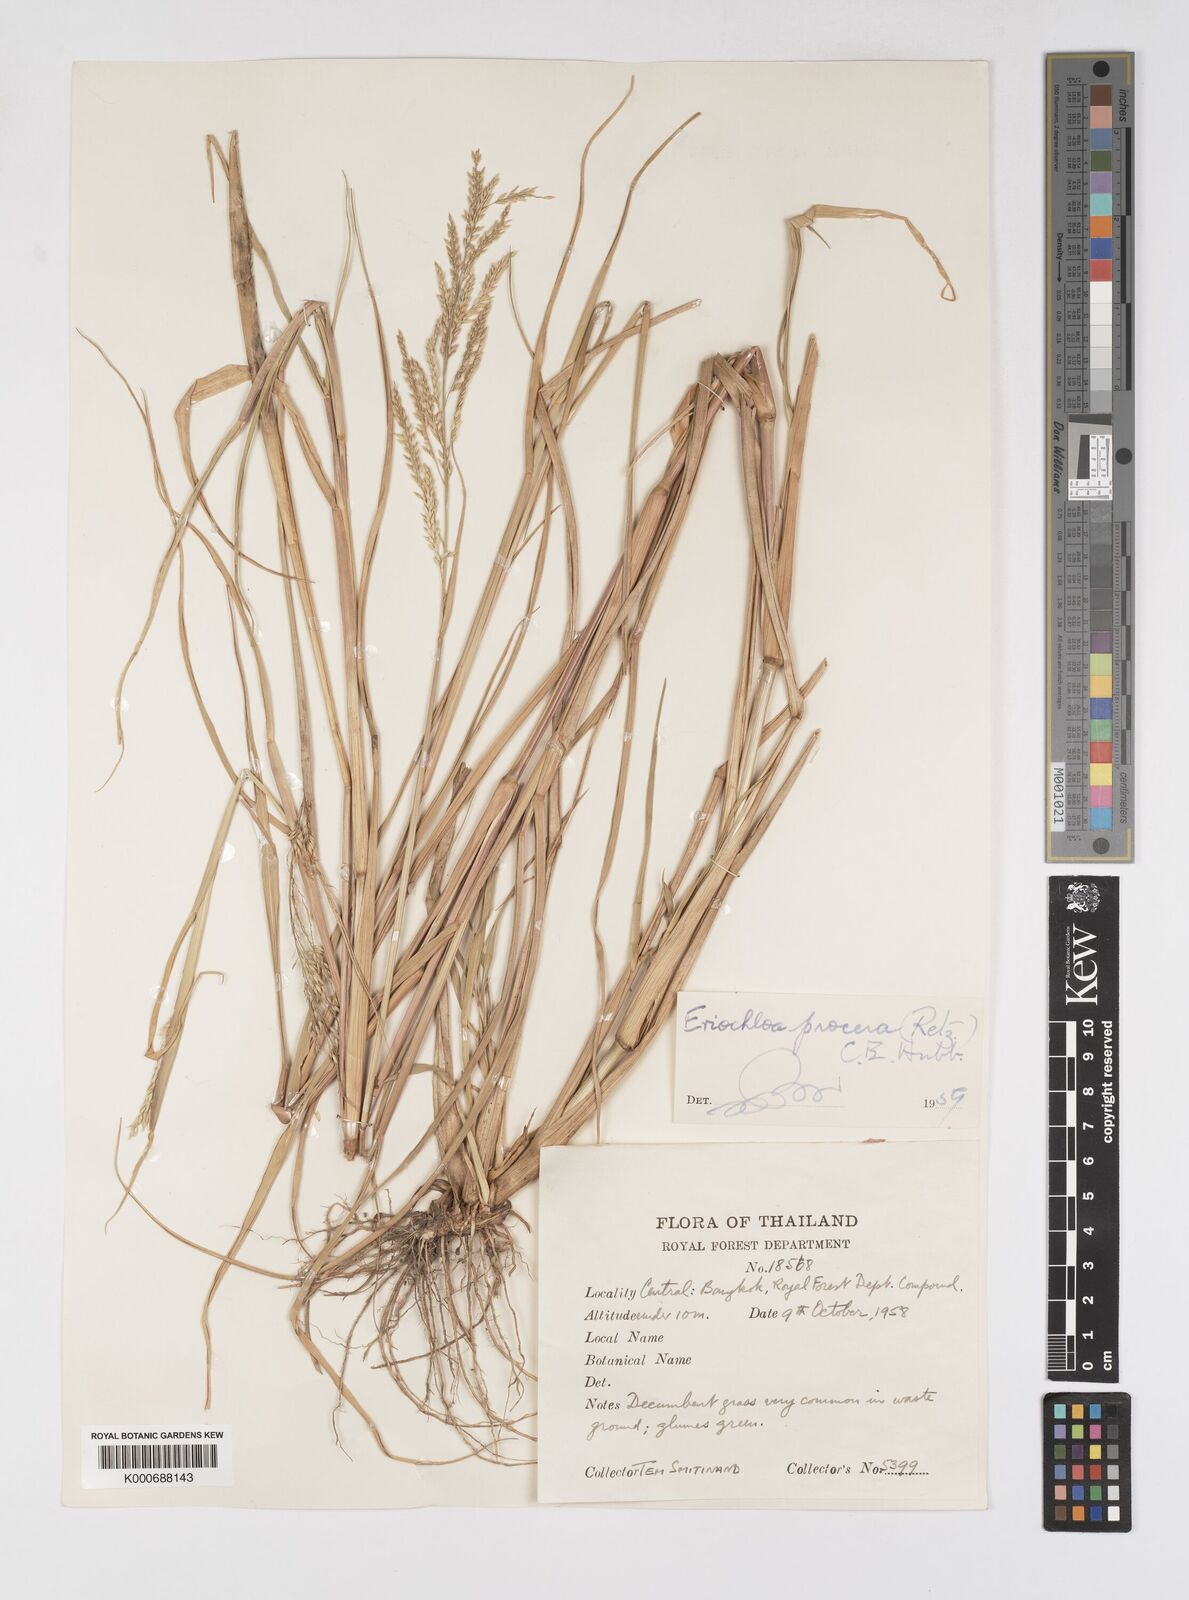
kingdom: Plantae
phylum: Tracheophyta
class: Liliopsida
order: Poales
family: Poaceae
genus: Eriochloa
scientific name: Eriochloa procera
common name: Spring grass
